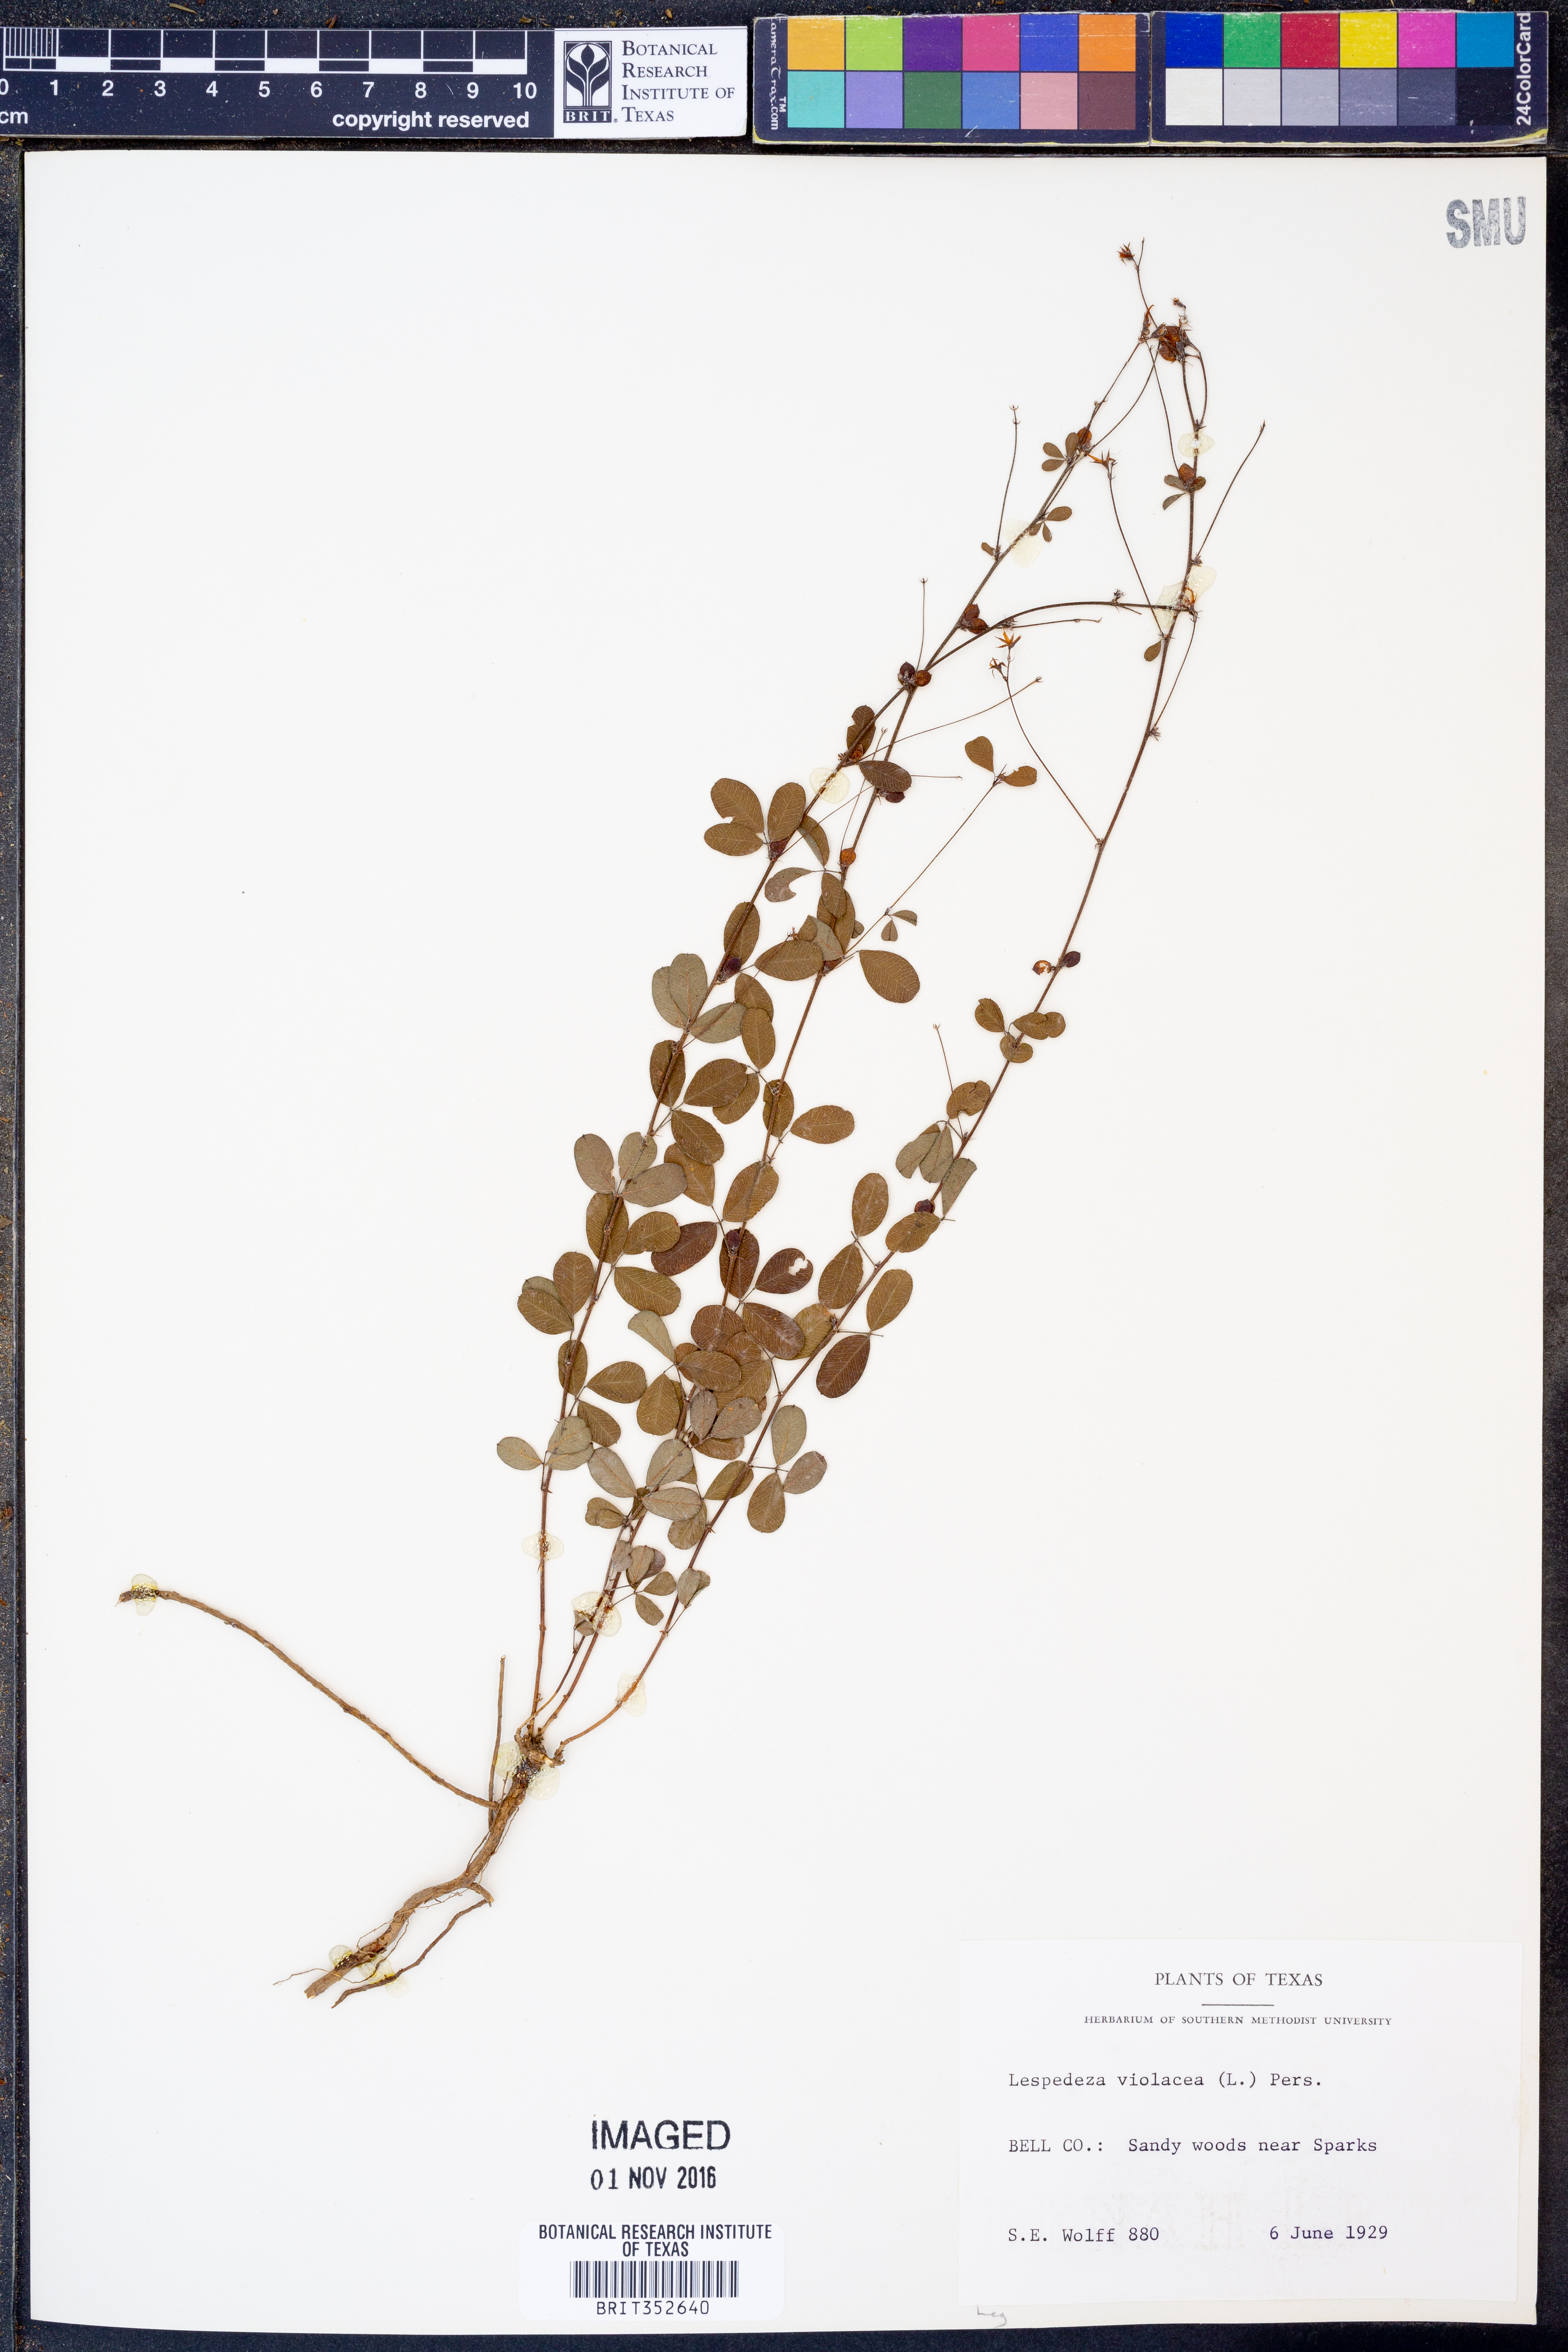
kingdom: Plantae
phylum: Tracheophyta
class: Magnoliopsida
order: Fabales
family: Fabaceae
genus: Lespedeza
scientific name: Lespedeza violacea
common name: Wand bush-clover
